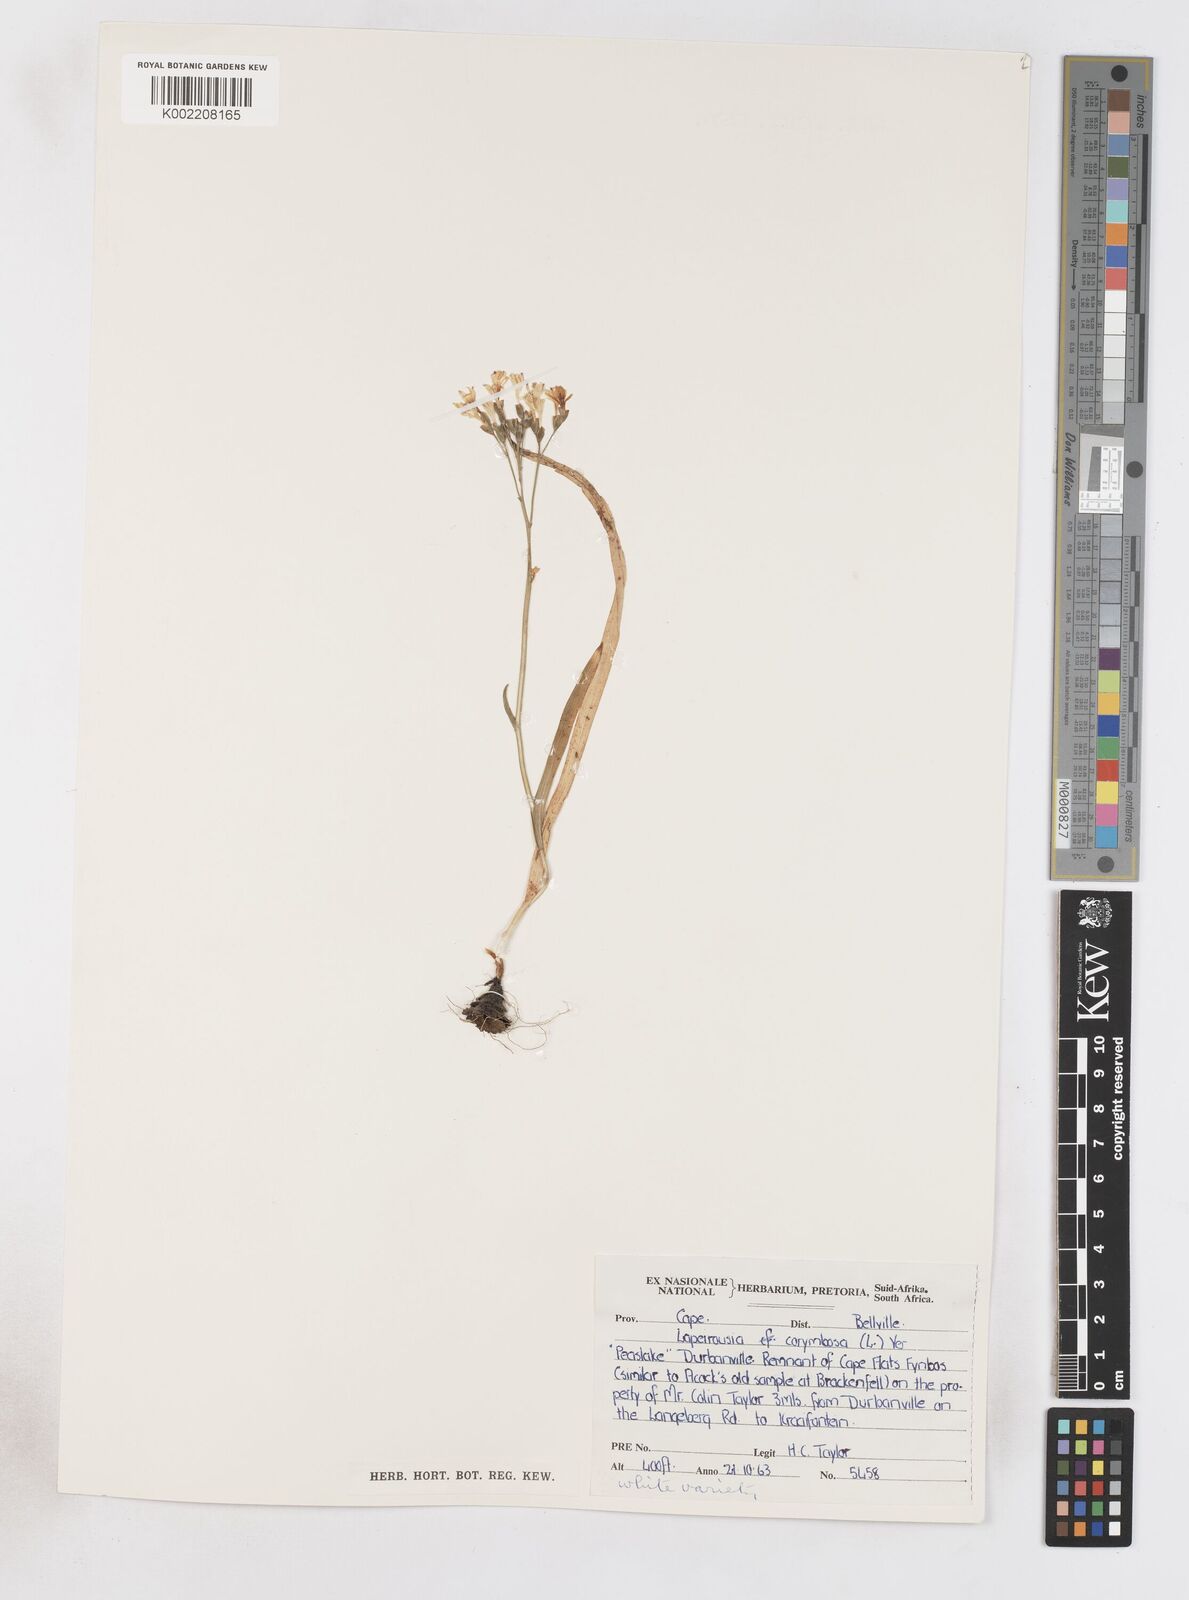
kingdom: Plantae
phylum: Tracheophyta
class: Liliopsida
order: Asparagales
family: Iridaceae
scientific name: Iridaceae
